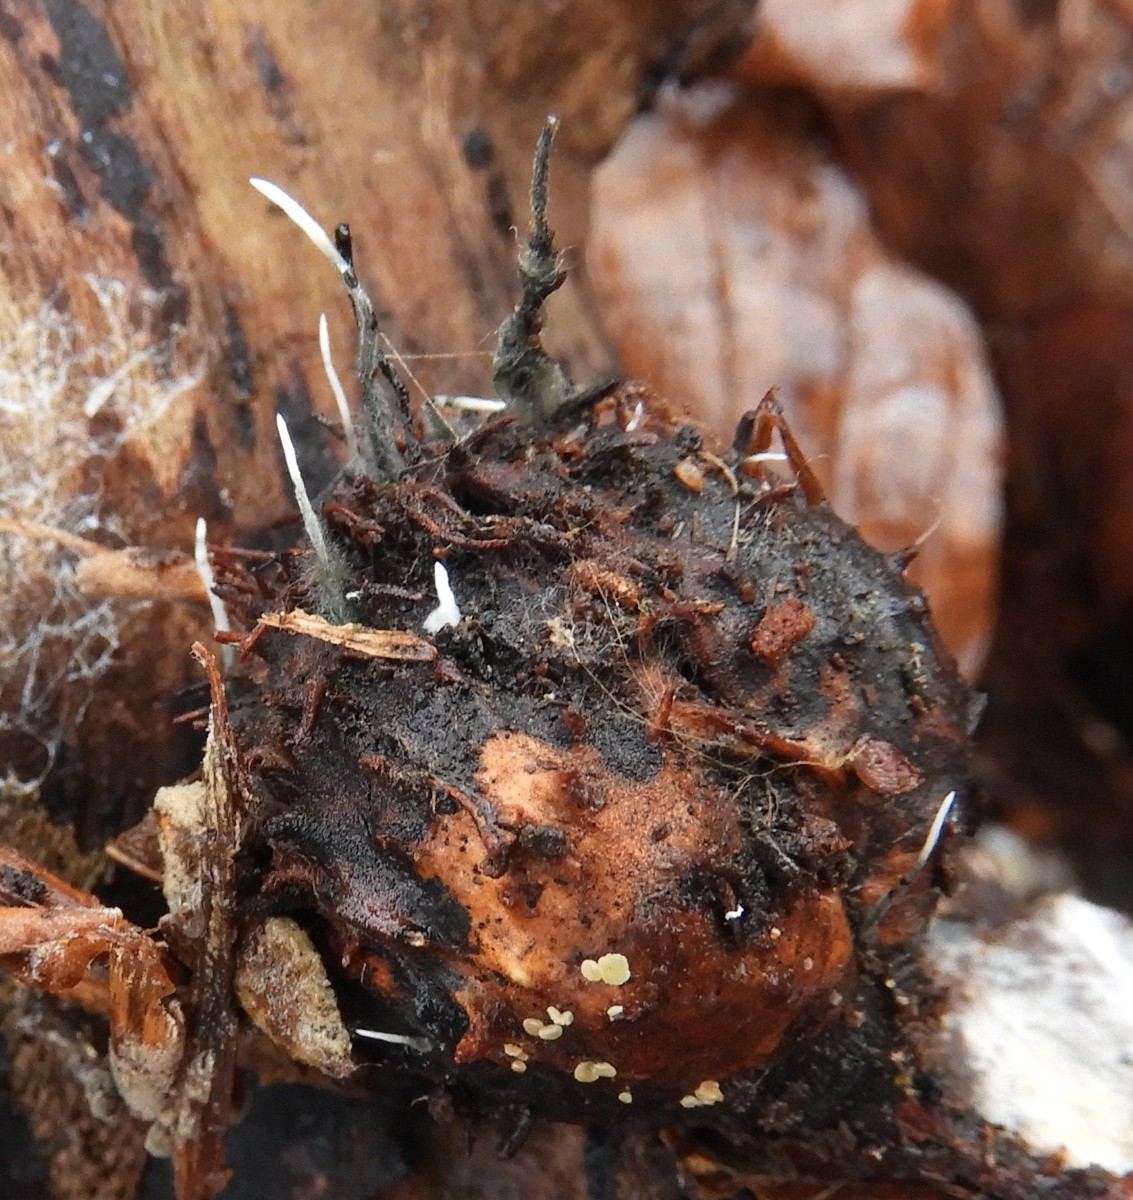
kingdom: Fungi
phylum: Ascomycota
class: Sordariomycetes
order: Xylariales
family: Xylariaceae
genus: Xylaria
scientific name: Xylaria carpophila
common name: bogskål-stødsvamp
